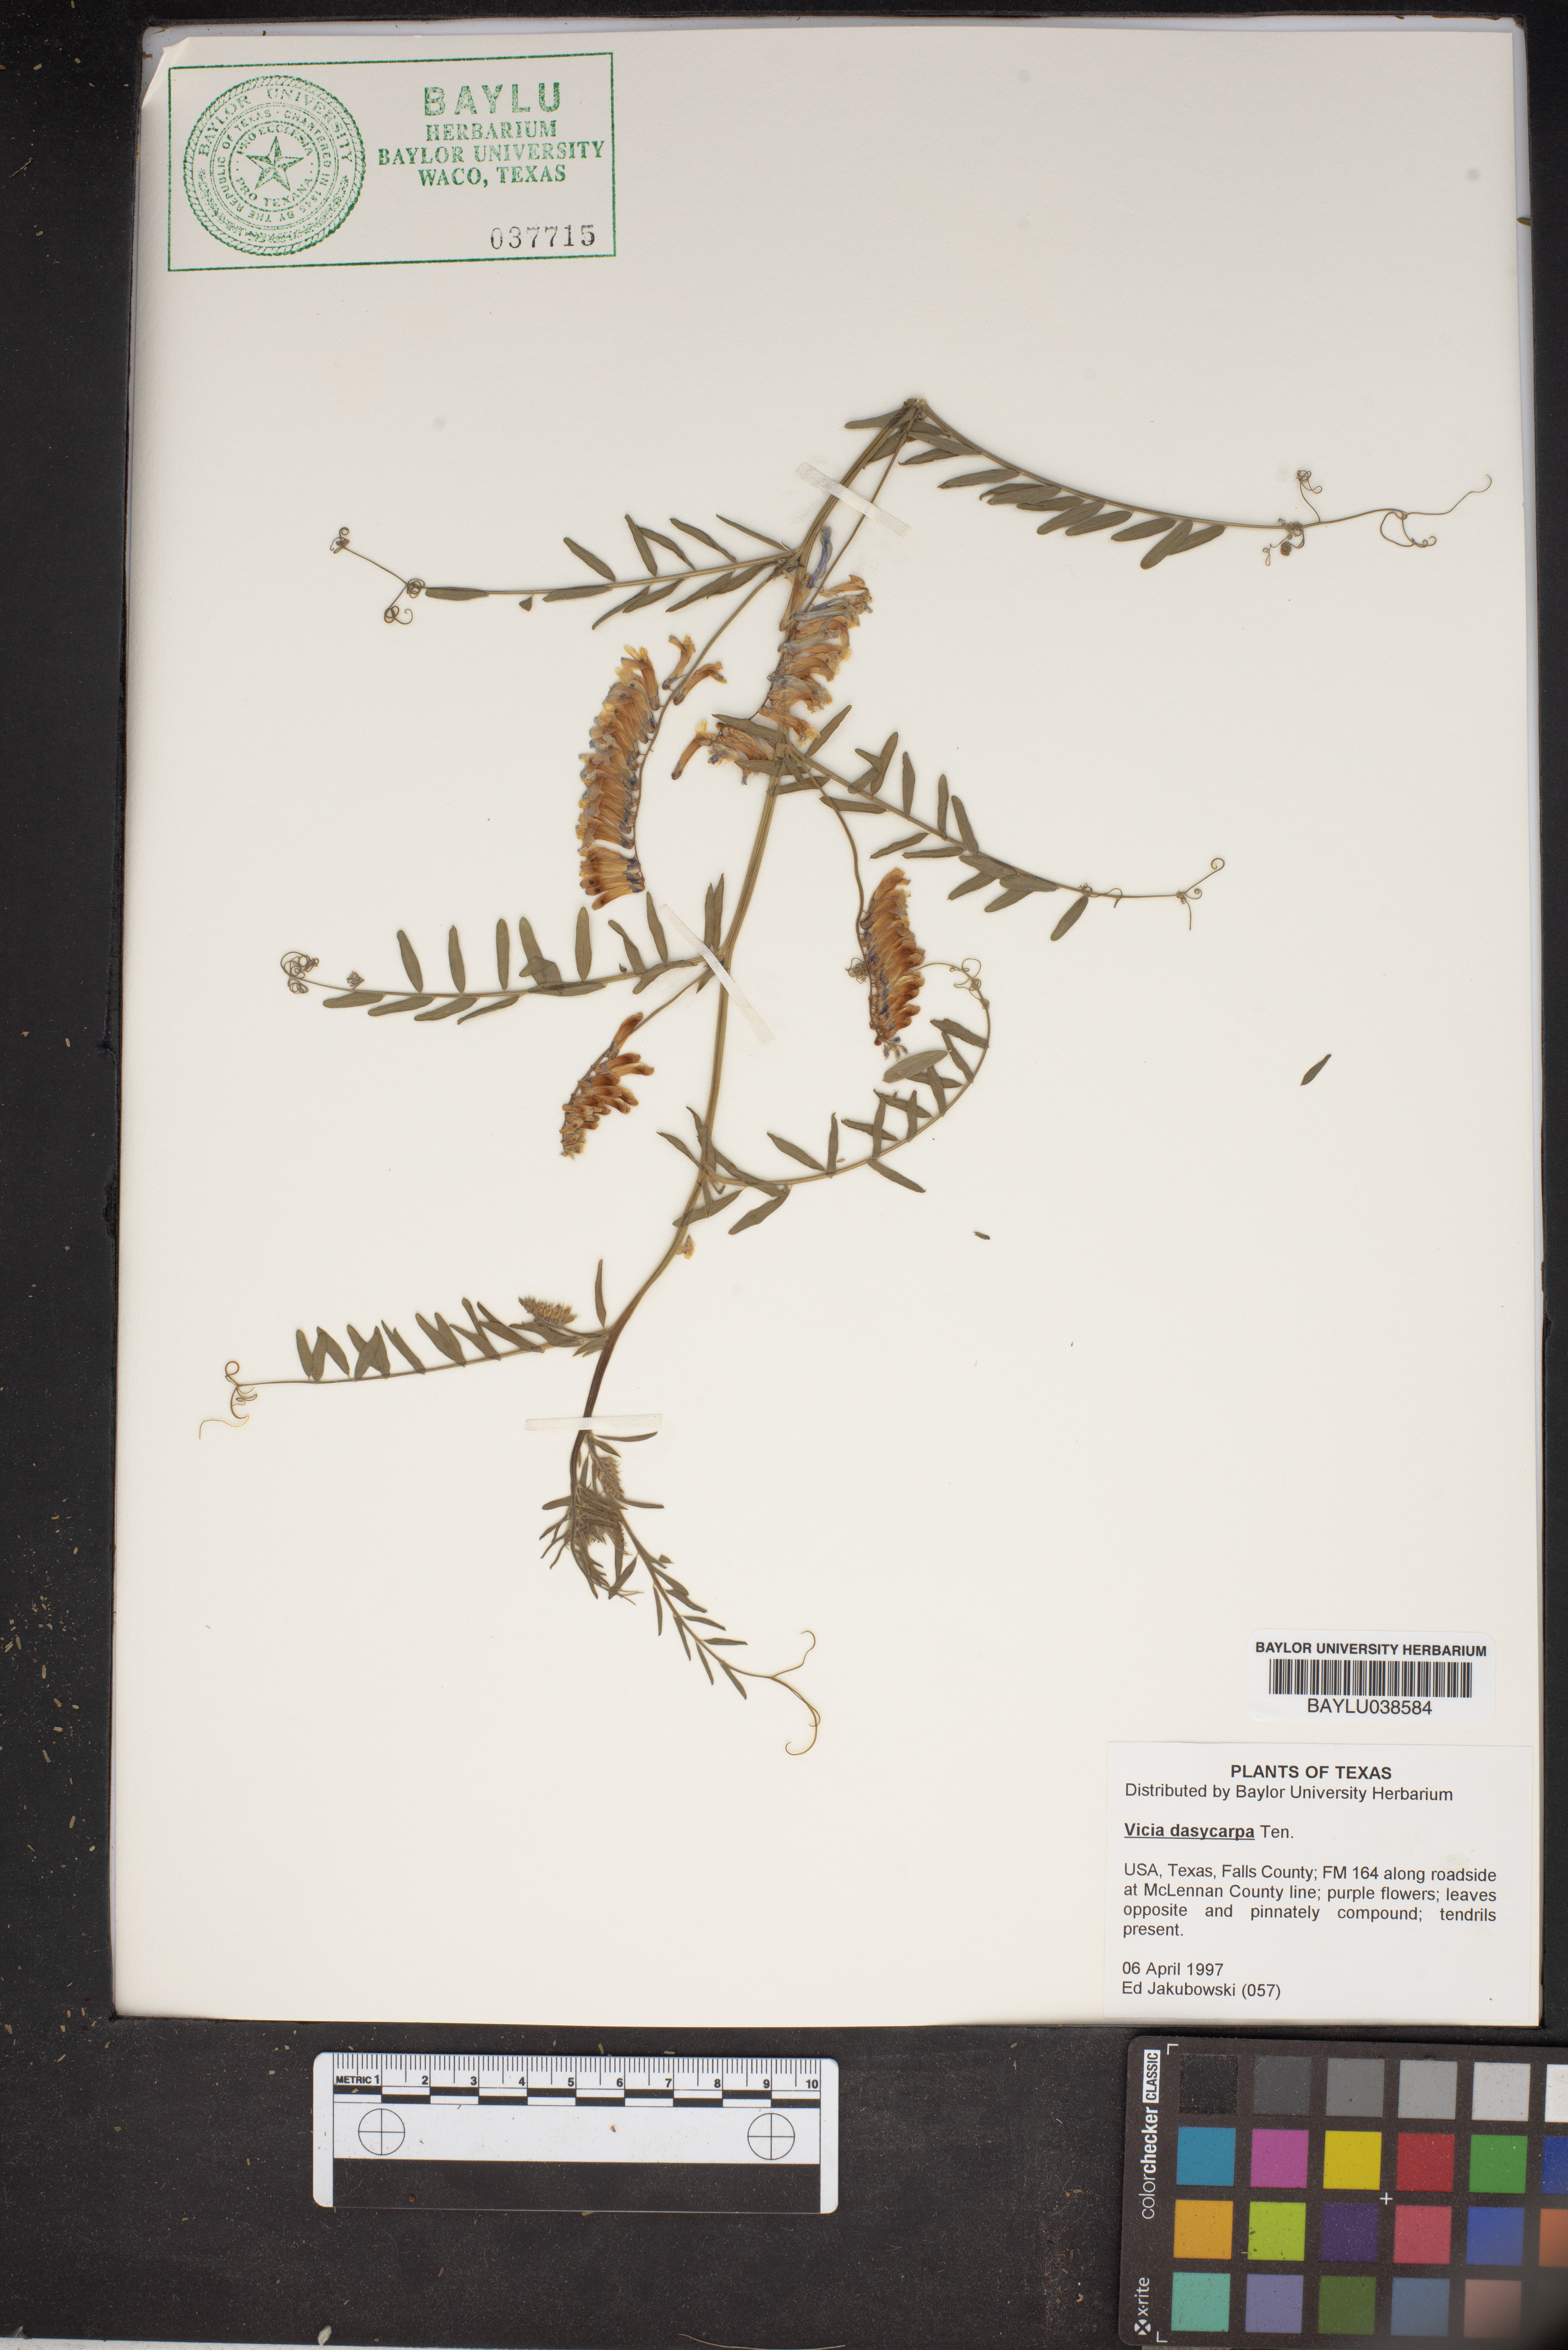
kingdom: Plantae
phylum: Tracheophyta
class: Magnoliopsida
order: Fabales
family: Fabaceae
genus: Vicia
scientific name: Vicia villosa
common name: Fodder vetch
